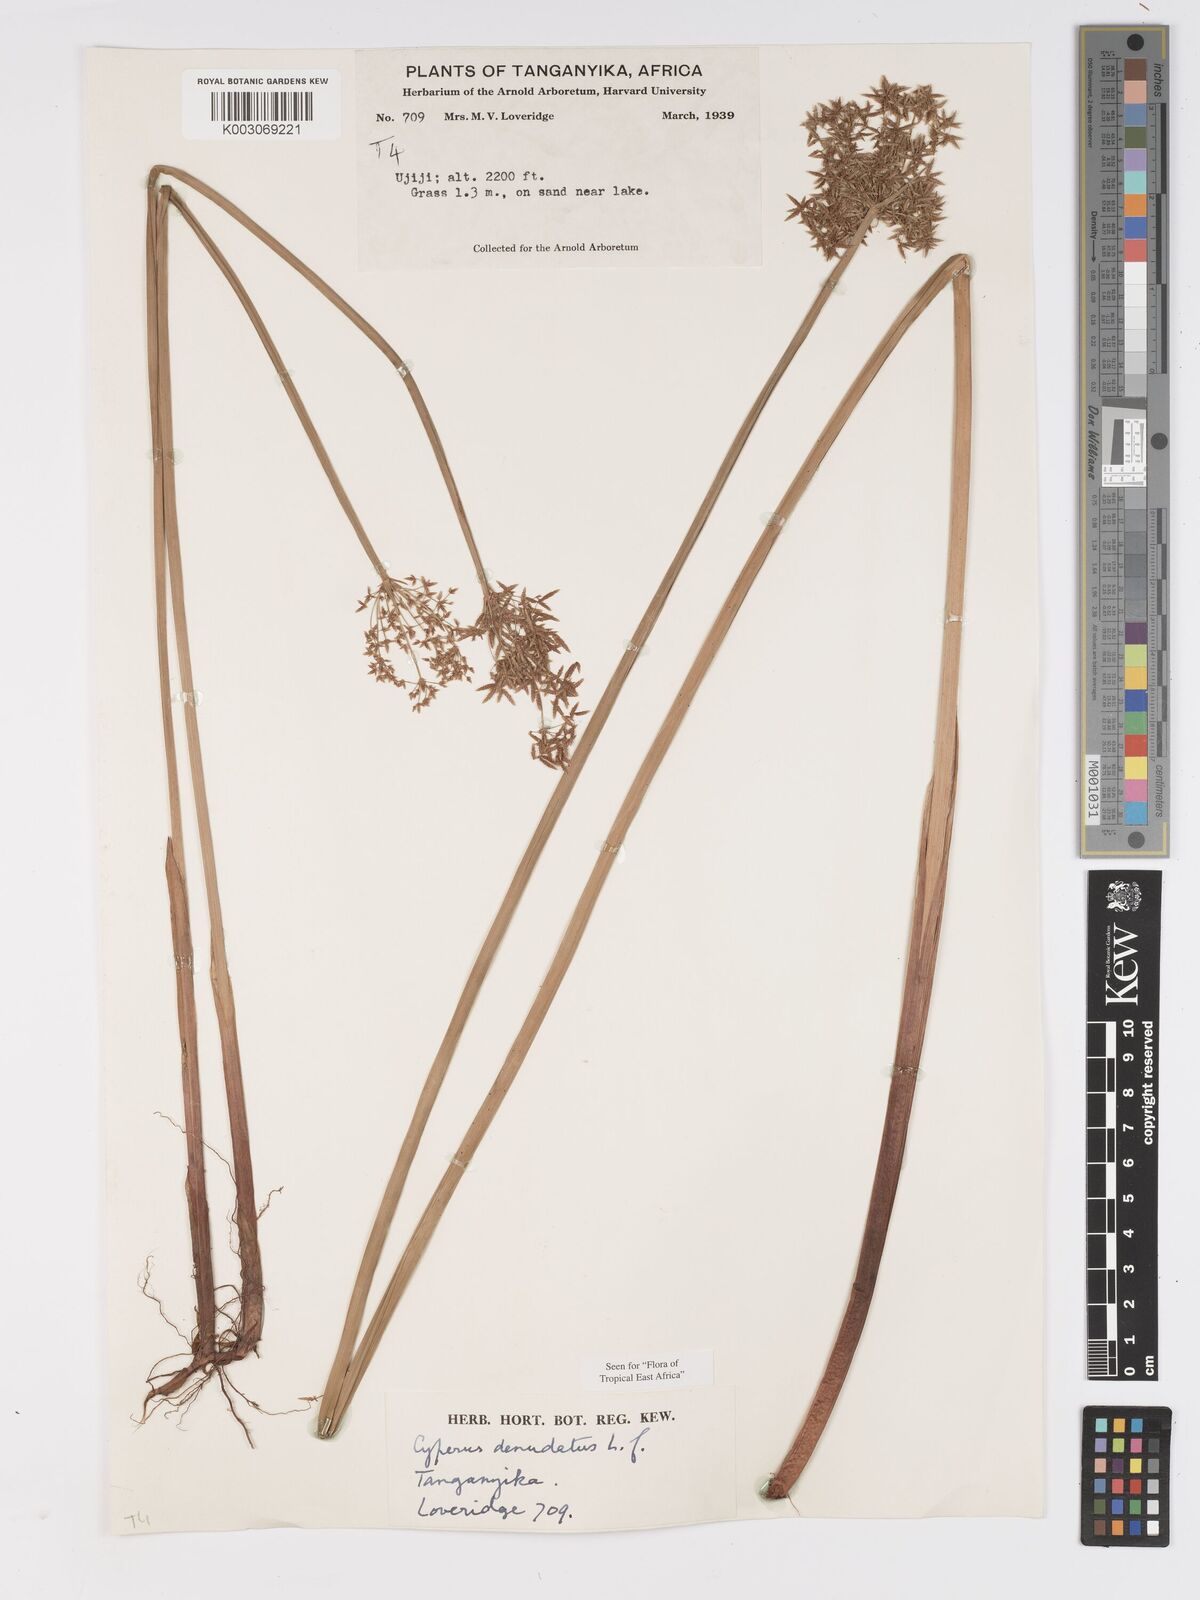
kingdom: Plantae
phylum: Tracheophyta
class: Liliopsida
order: Poales
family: Cyperaceae
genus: Cyperus
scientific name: Cyperus denudatus
